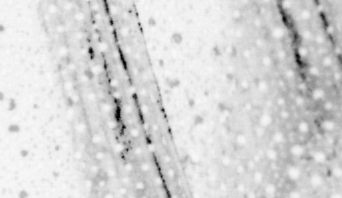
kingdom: Animalia
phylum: Chordata
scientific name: Chordata
